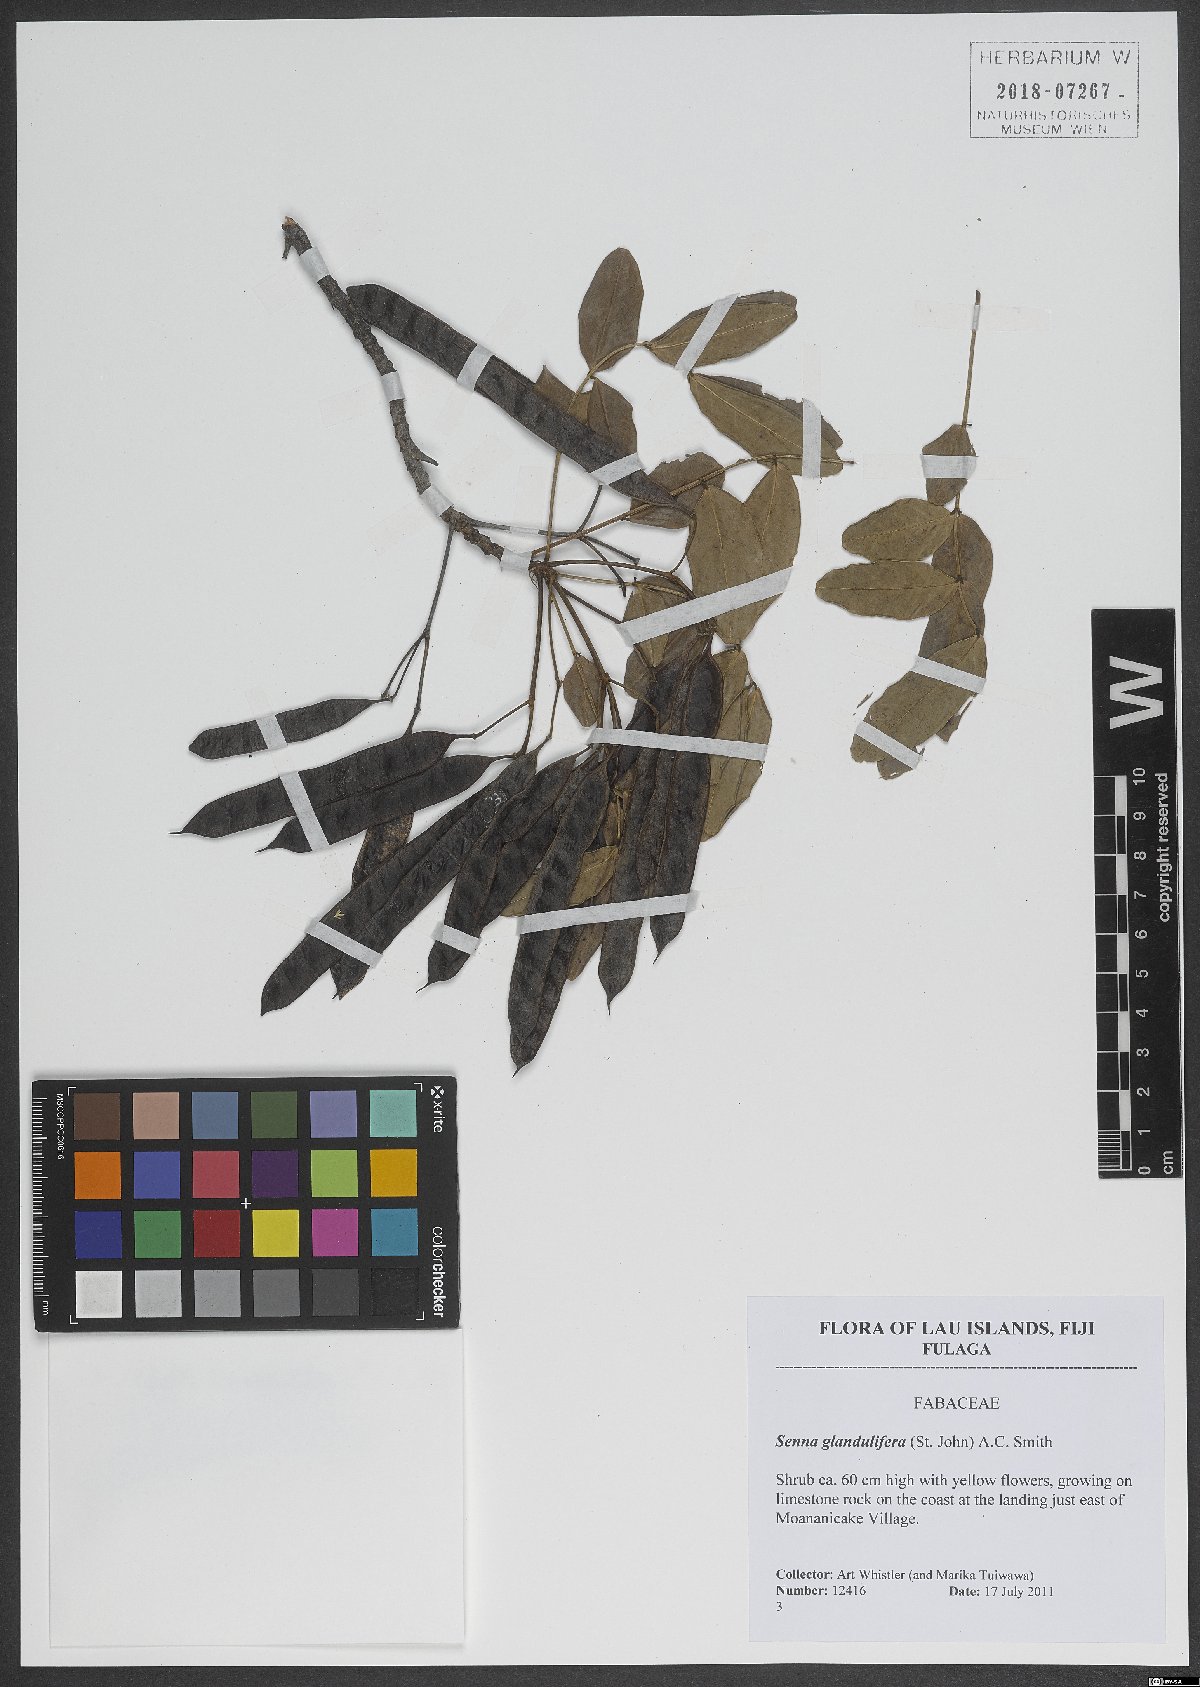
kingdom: Plantae
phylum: Tracheophyta
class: Magnoliopsida
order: Fabales
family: Fabaceae
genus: Senna
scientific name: Senna gaudichaudii
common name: Climbing cassia
